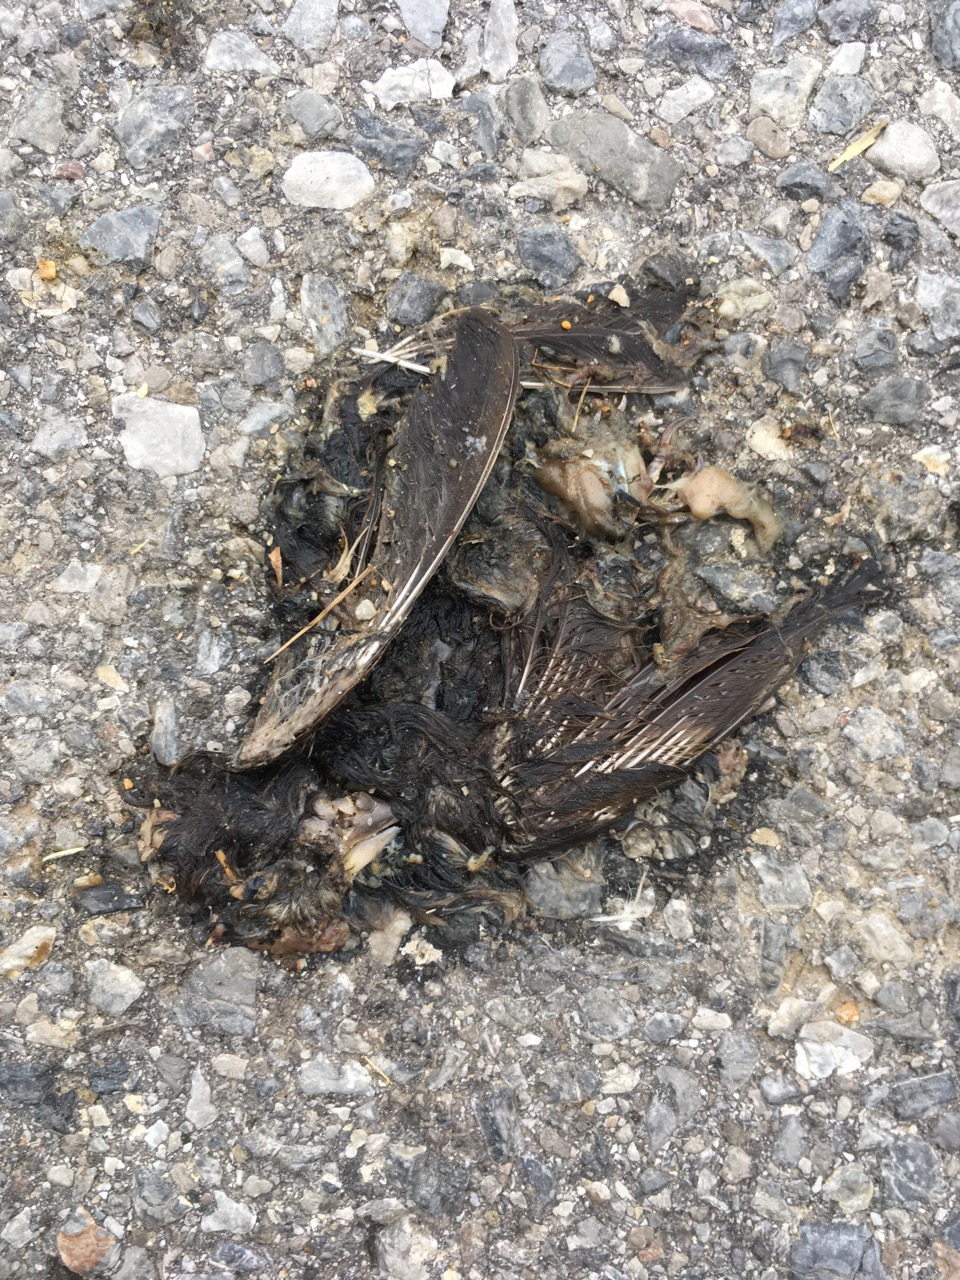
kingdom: Animalia
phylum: Chordata
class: Aves
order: Passeriformes
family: Passeridae
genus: Passer
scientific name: Passer
